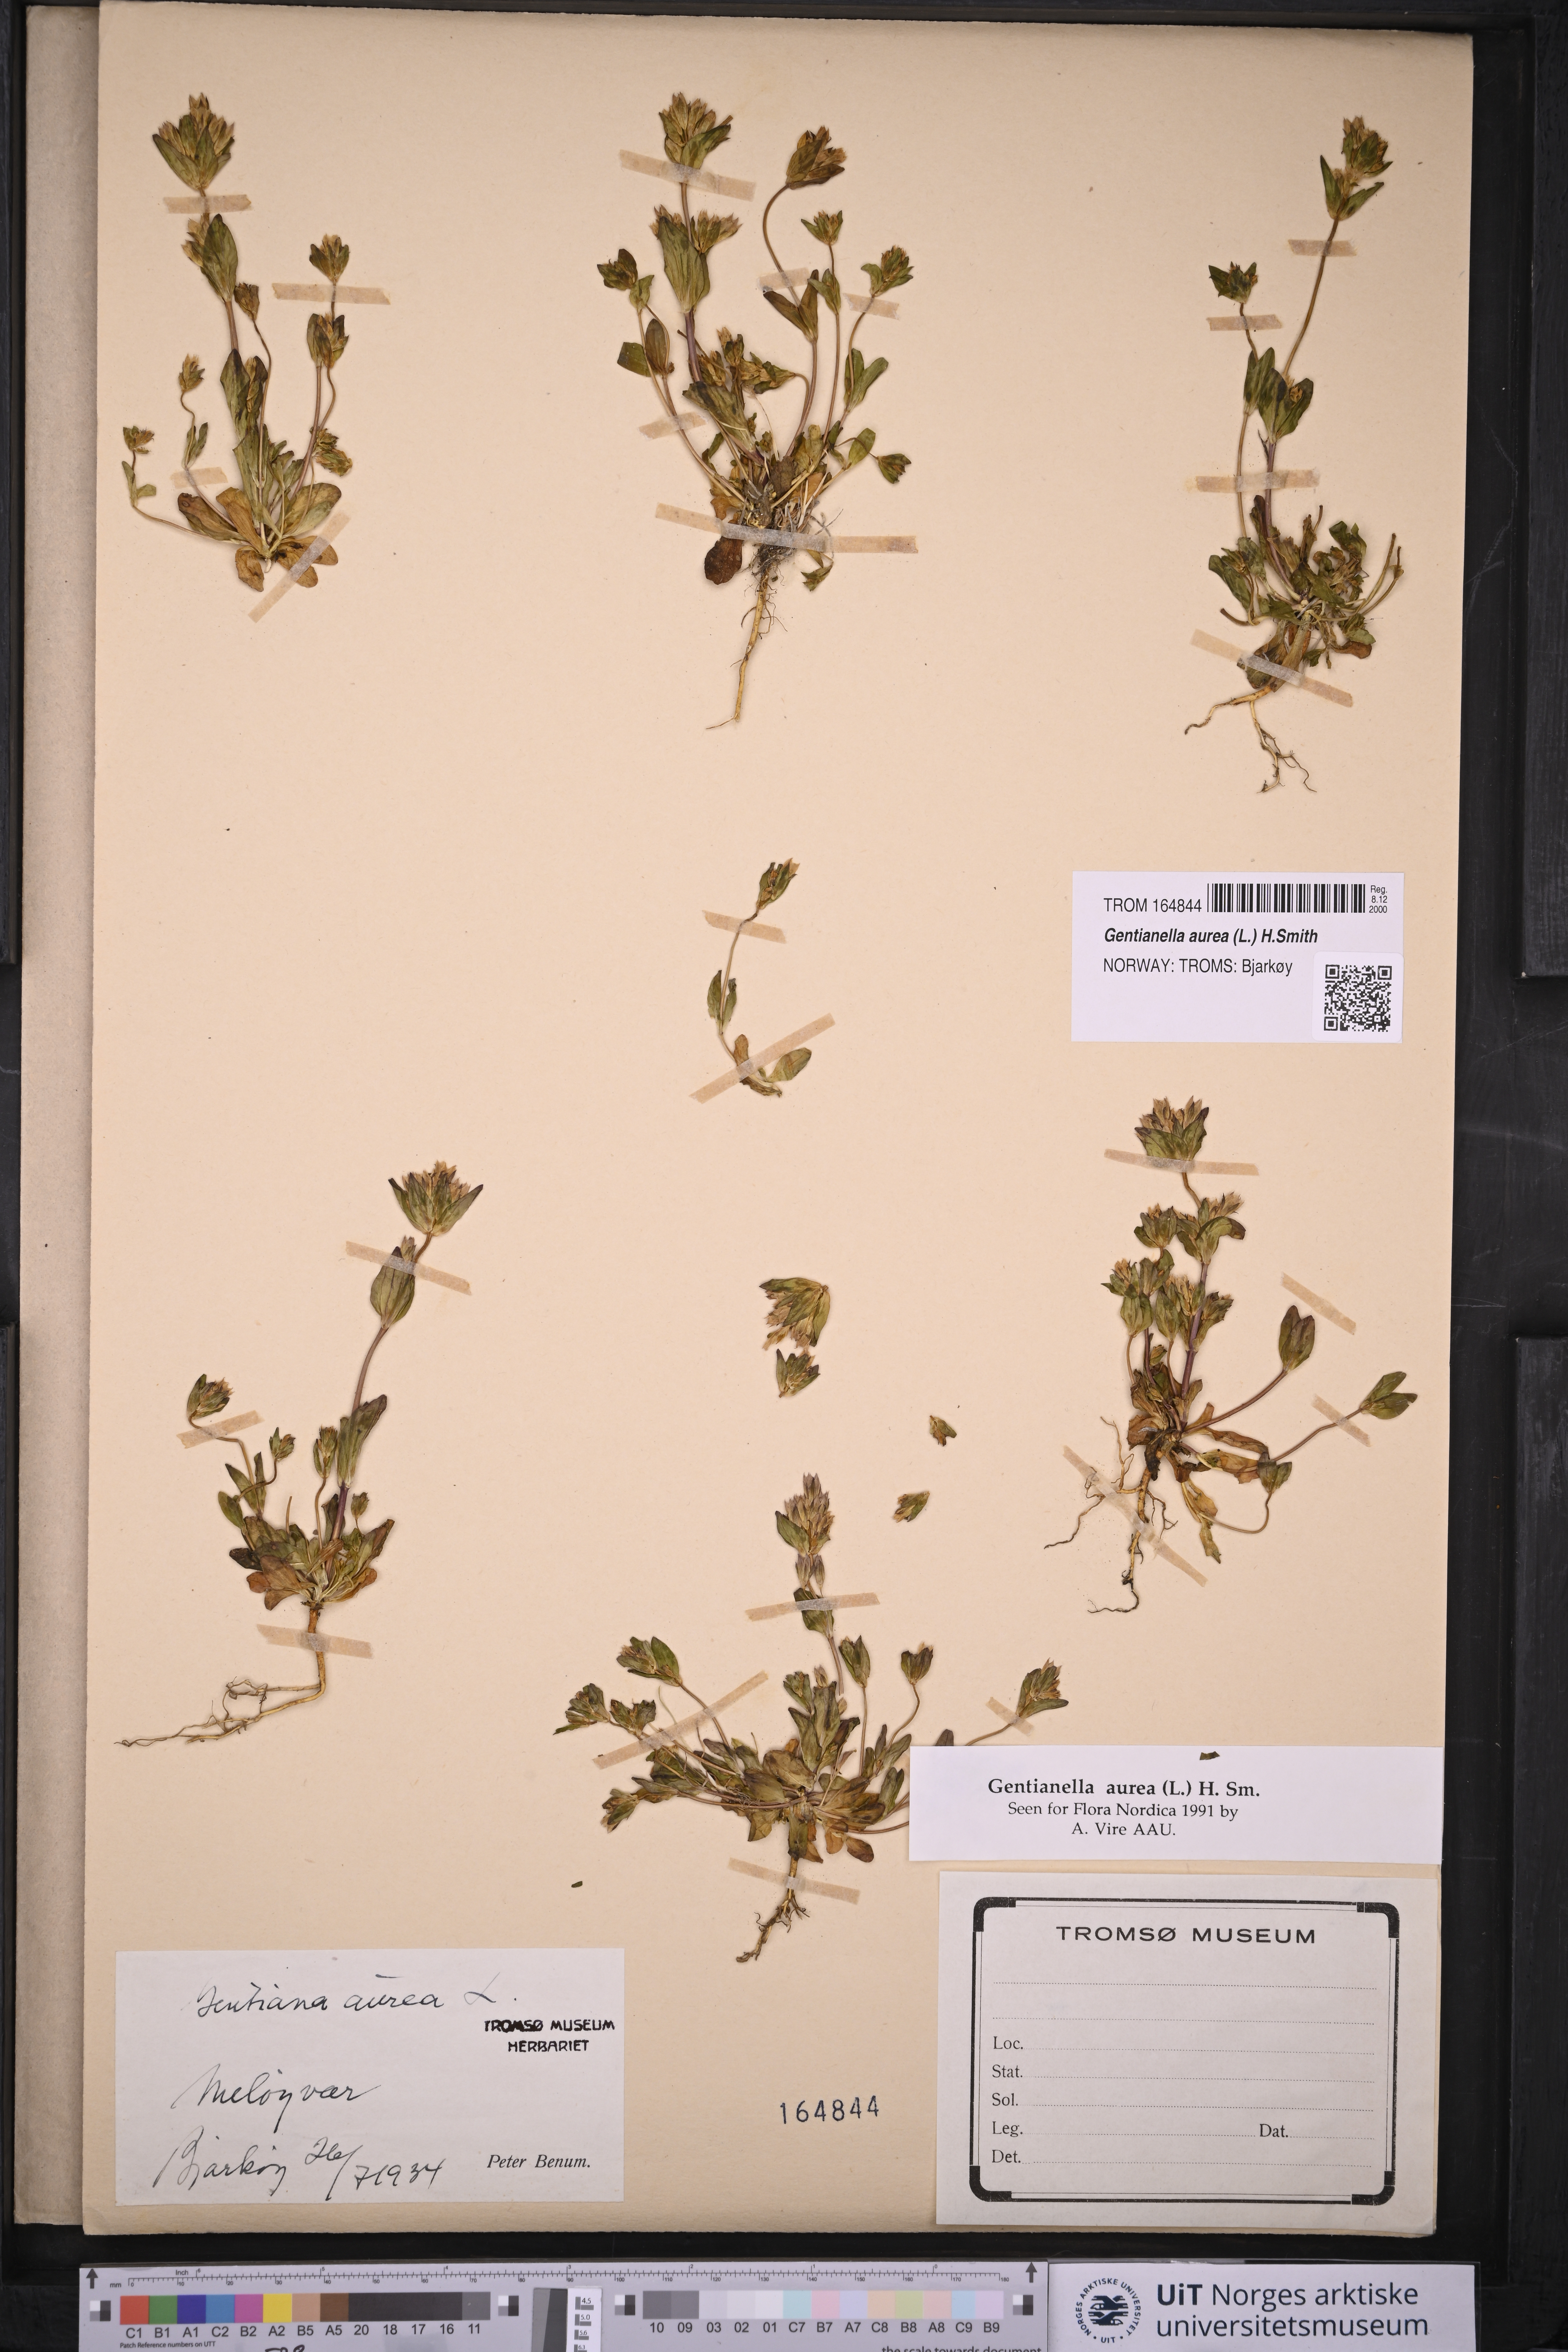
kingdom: Plantae
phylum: Tracheophyta
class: Magnoliopsida
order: Gentianales
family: Gentianaceae
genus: Gentianella
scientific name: Gentianella aurea
